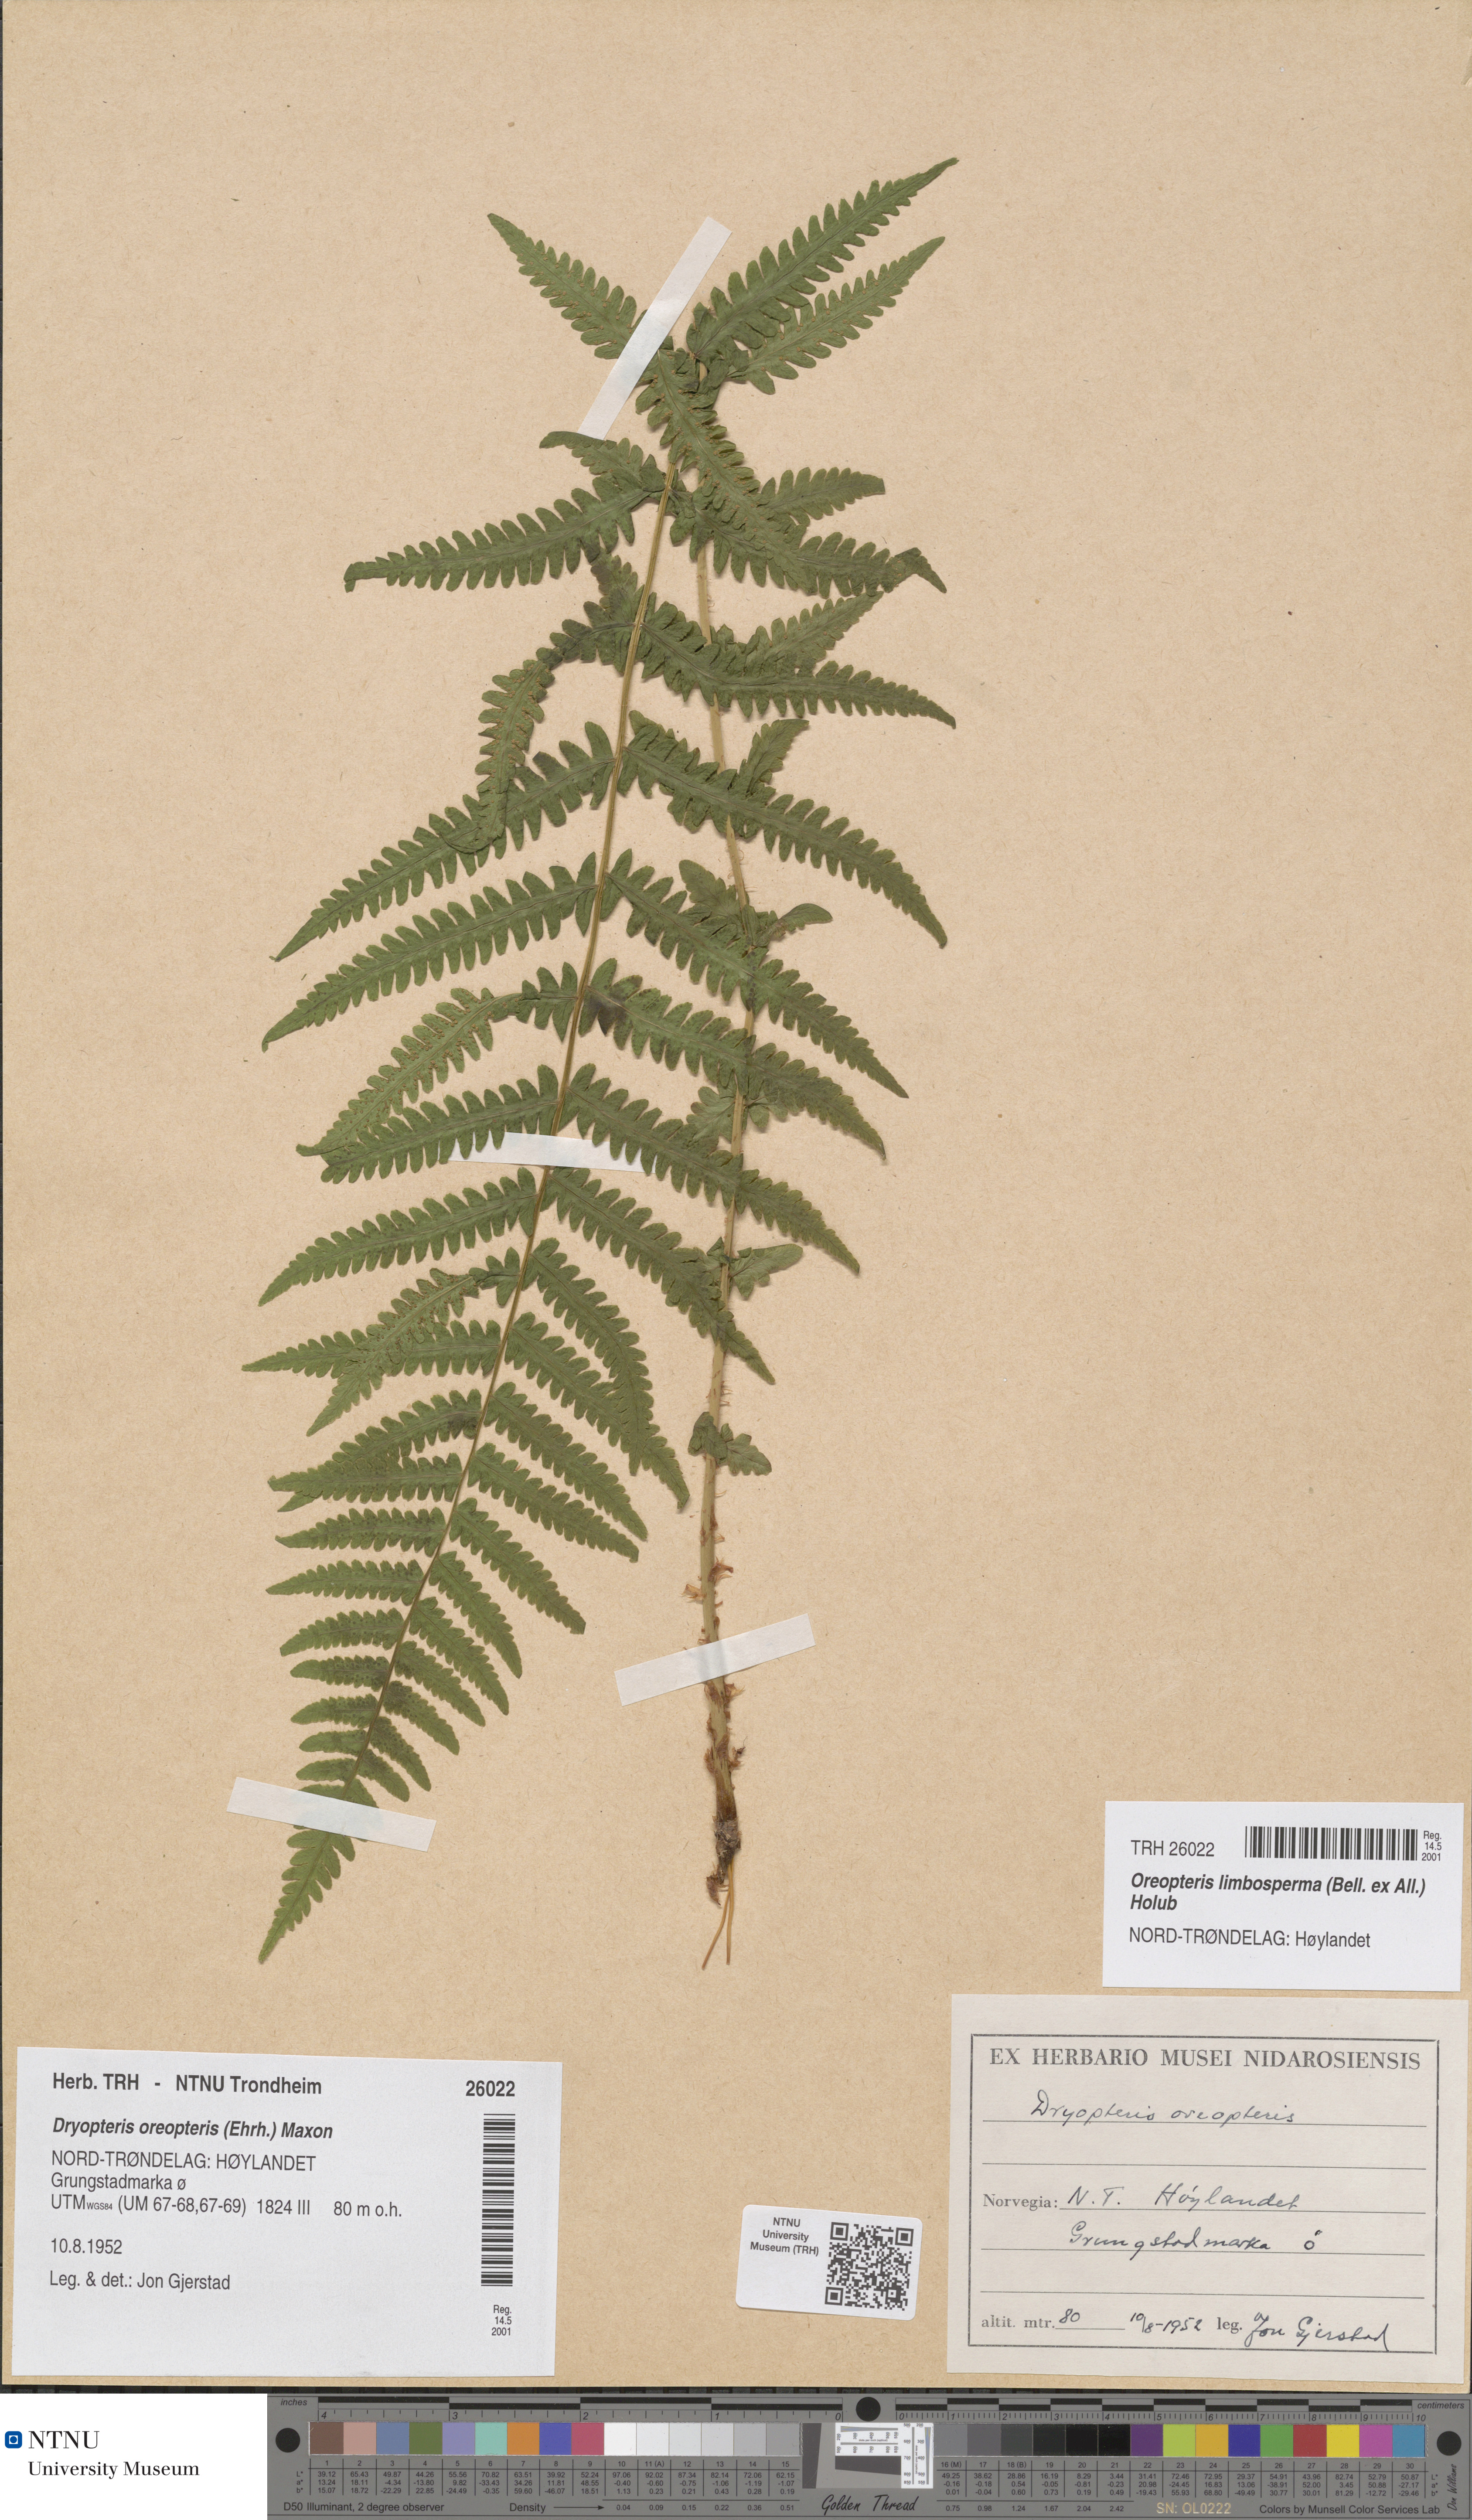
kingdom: Plantae
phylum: Tracheophyta
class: Polypodiopsida
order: Polypodiales
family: Thelypteridaceae
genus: Oreopteris
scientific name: Oreopteris limbosperma
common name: Lemon-scented fern
